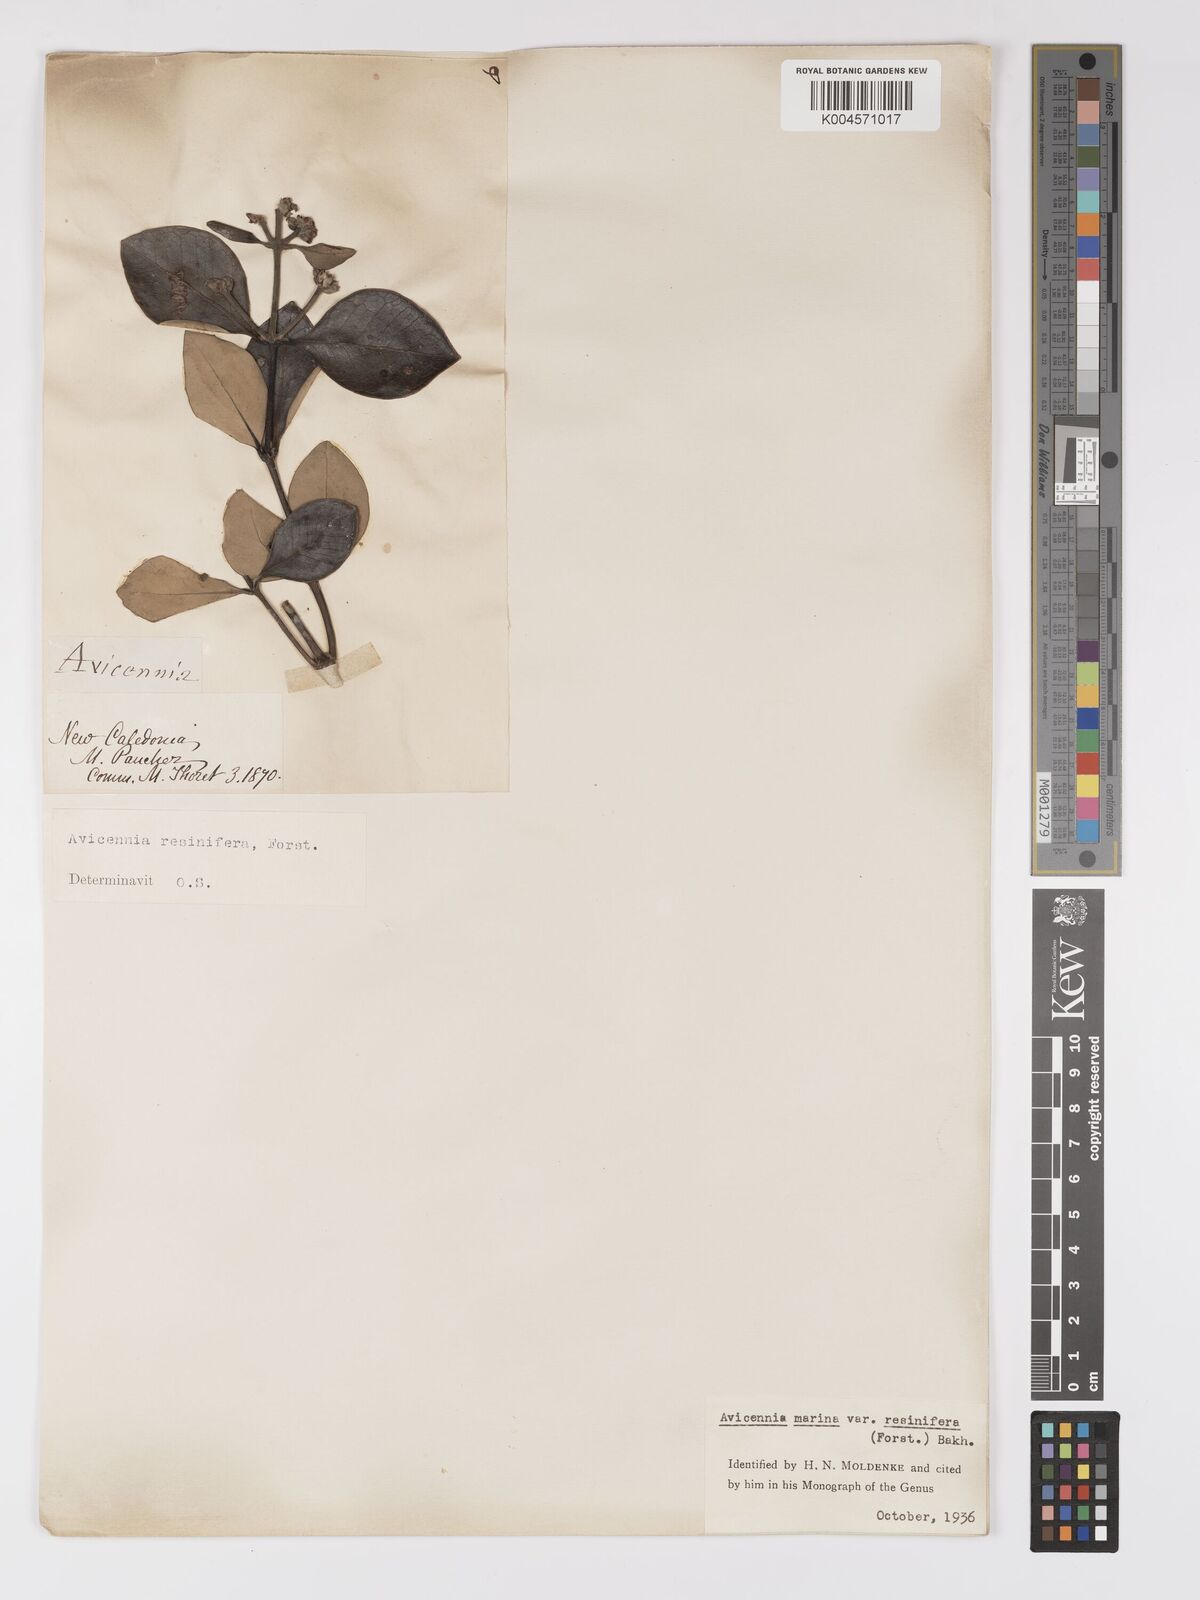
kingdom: Plantae
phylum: Tracheophyta
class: Magnoliopsida
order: Lamiales
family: Acanthaceae
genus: Avicennia
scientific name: Avicennia marina
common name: Gray mangrove
